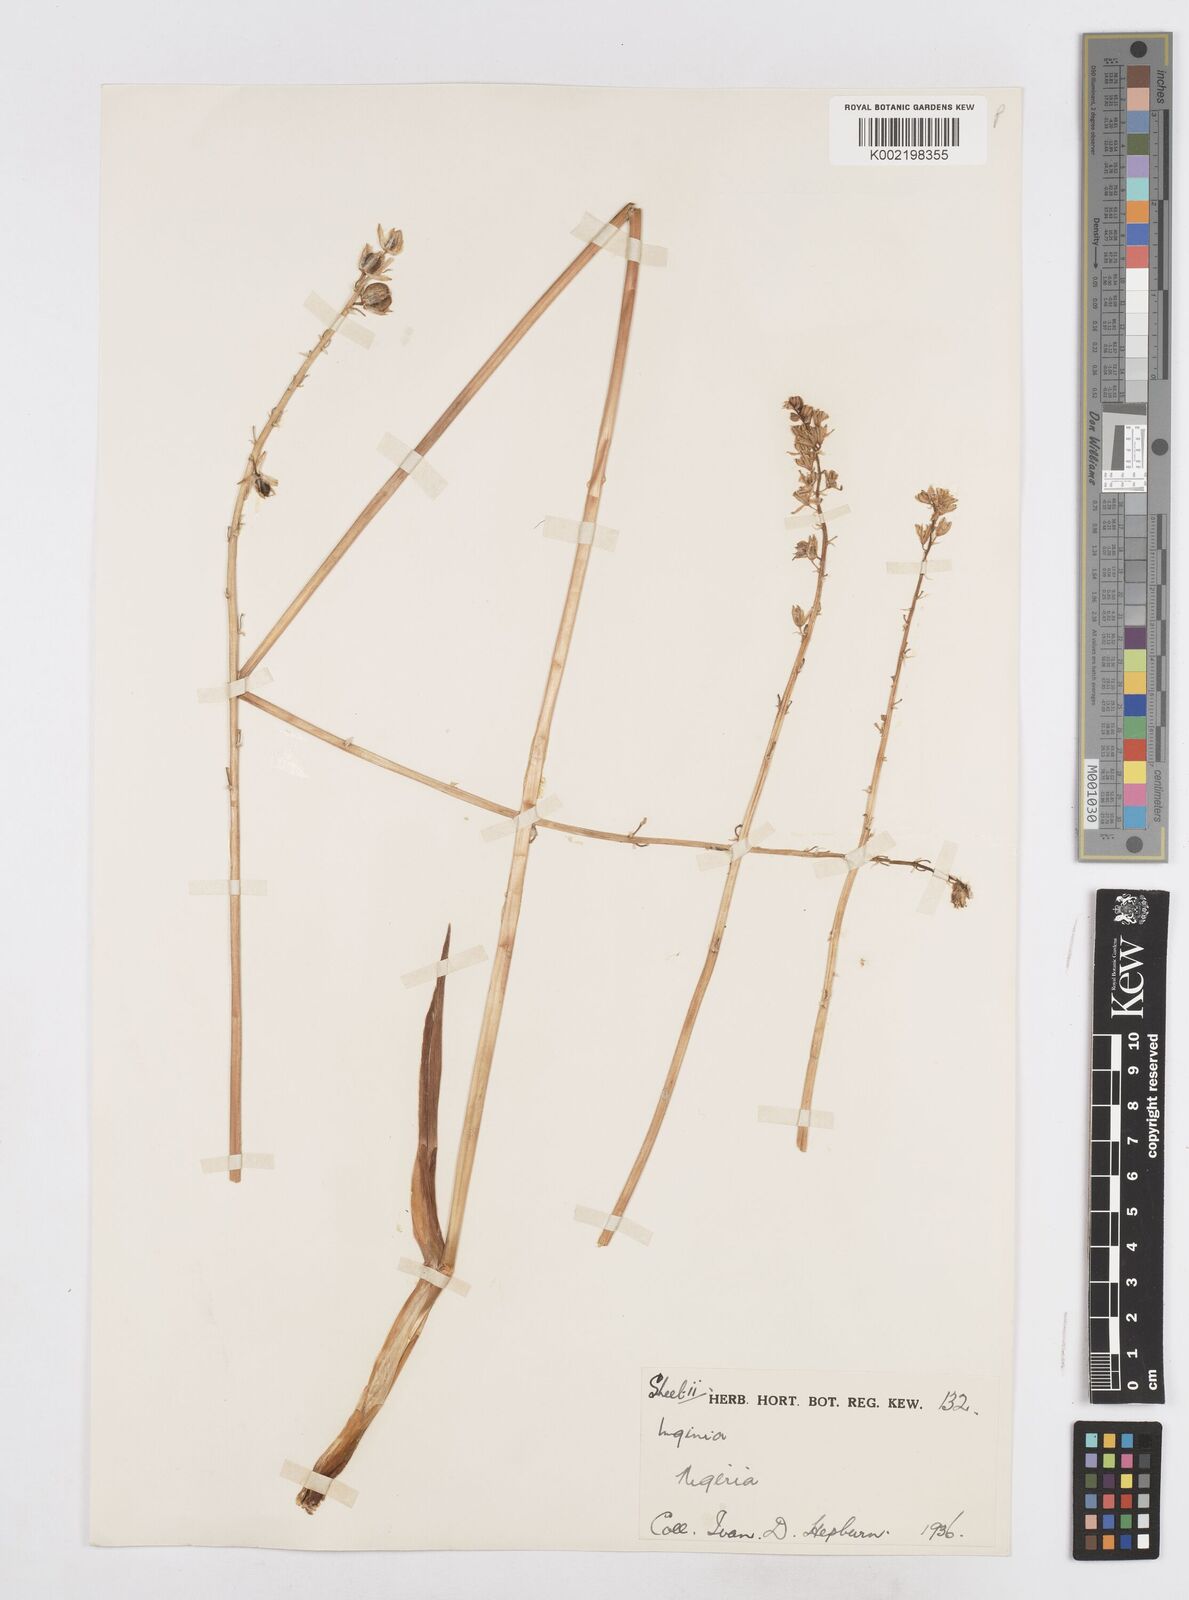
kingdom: Plantae
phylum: Tracheophyta
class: Liliopsida
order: Asparagales
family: Asparagaceae
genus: Ledebouria
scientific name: Ledebouria ensifolia
